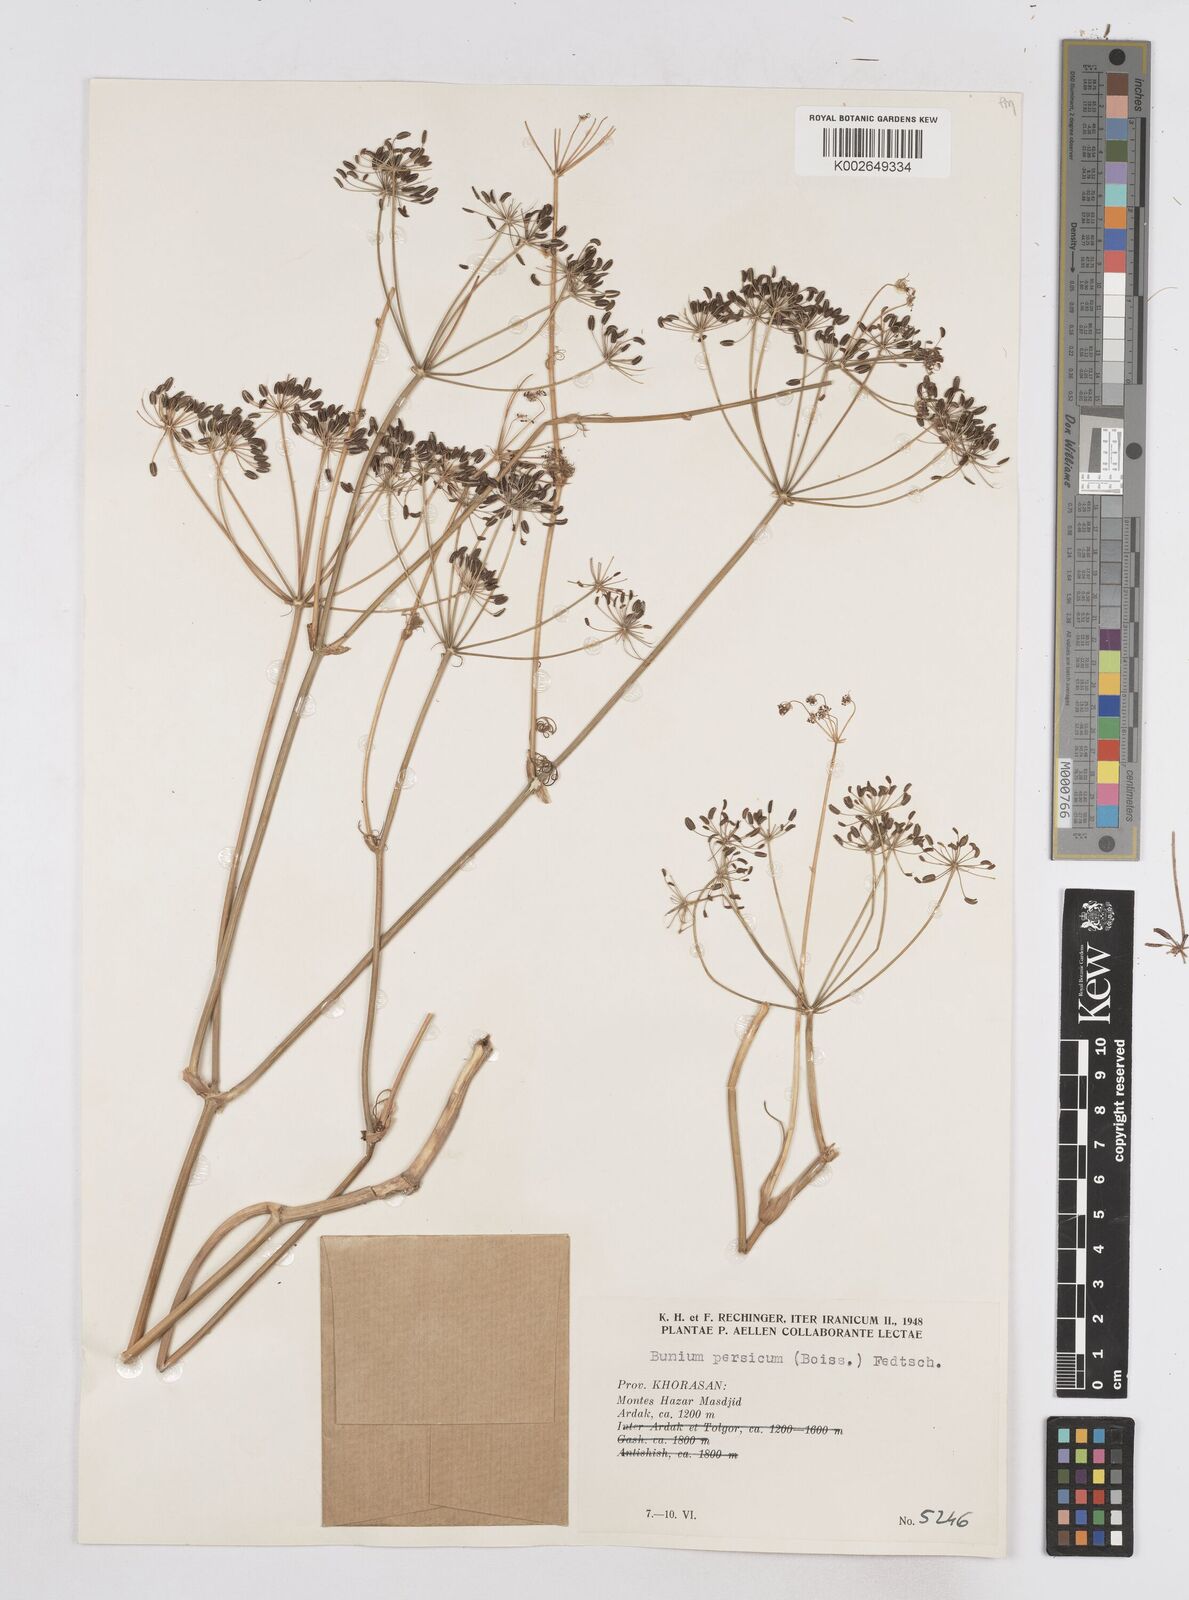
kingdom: Plantae
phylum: Tracheophyta
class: Magnoliopsida
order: Apiales
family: Apiaceae
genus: Elwendia
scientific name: Elwendia persica
